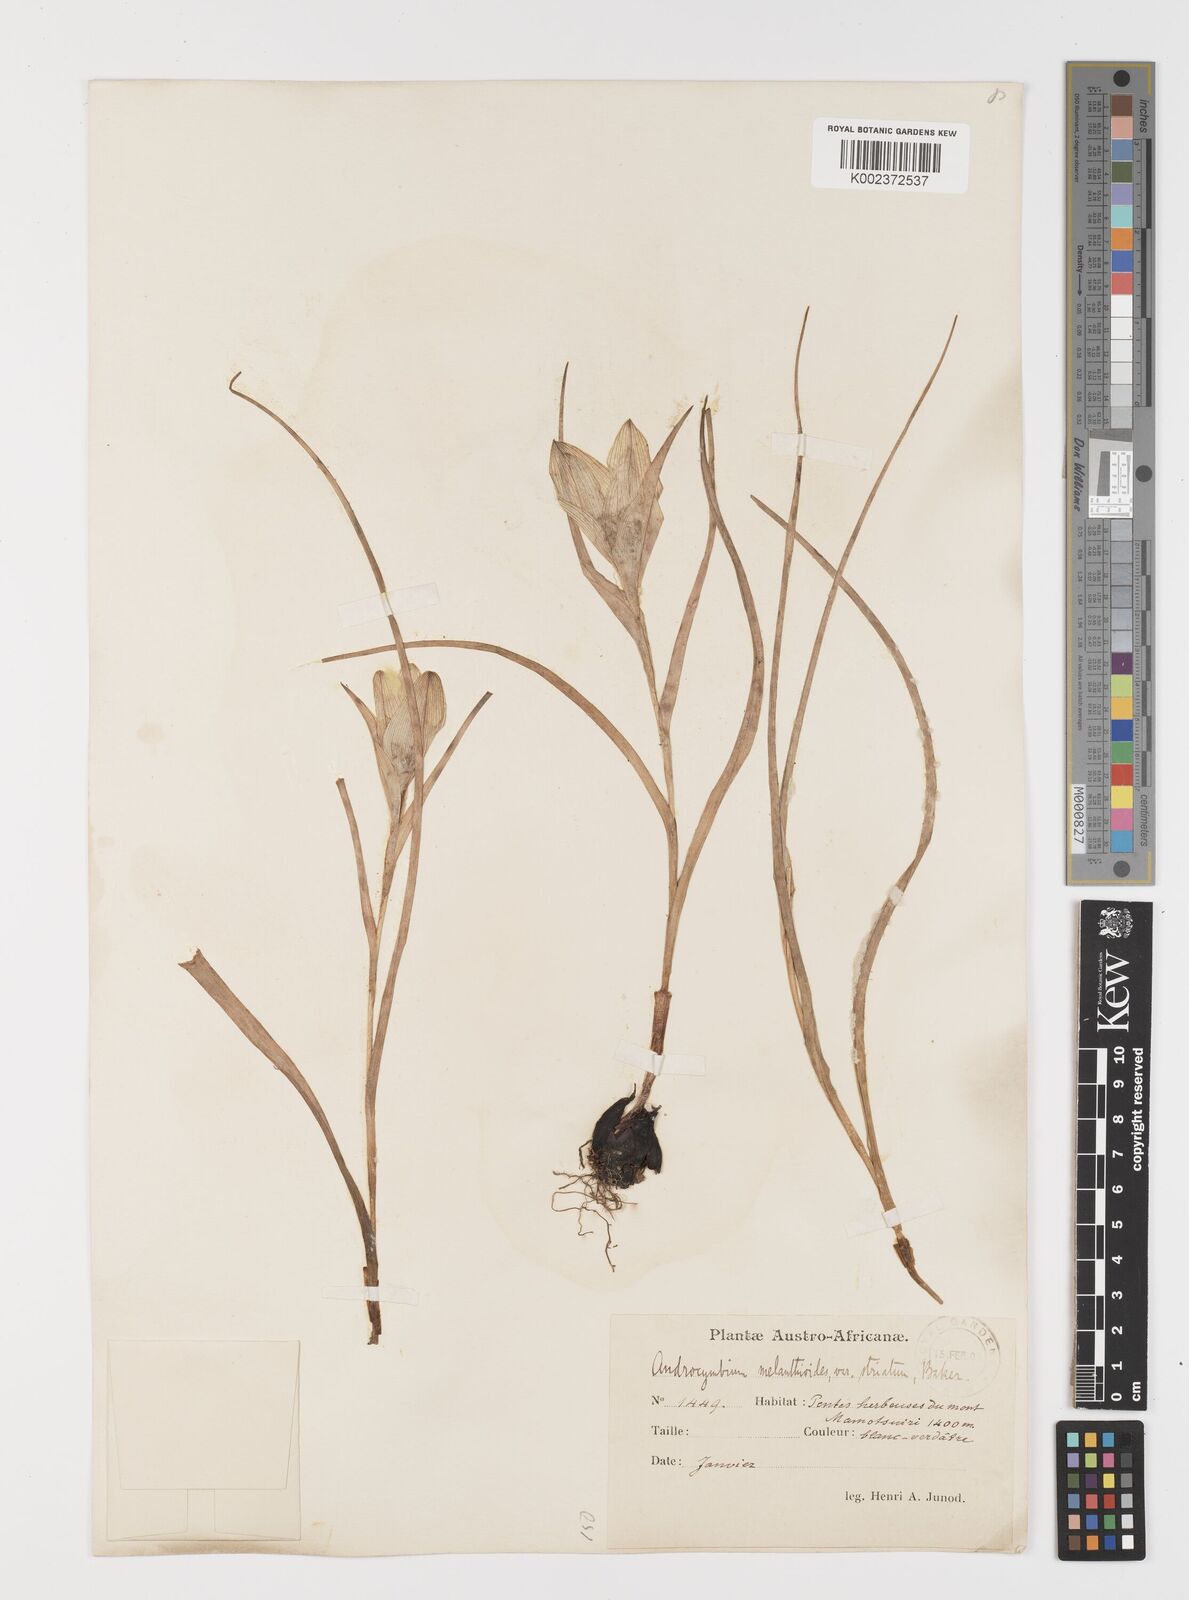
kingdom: Plantae
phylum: Tracheophyta
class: Liliopsida
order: Liliales
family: Colchicaceae
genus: Colchicum
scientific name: Colchicum melanthioides
